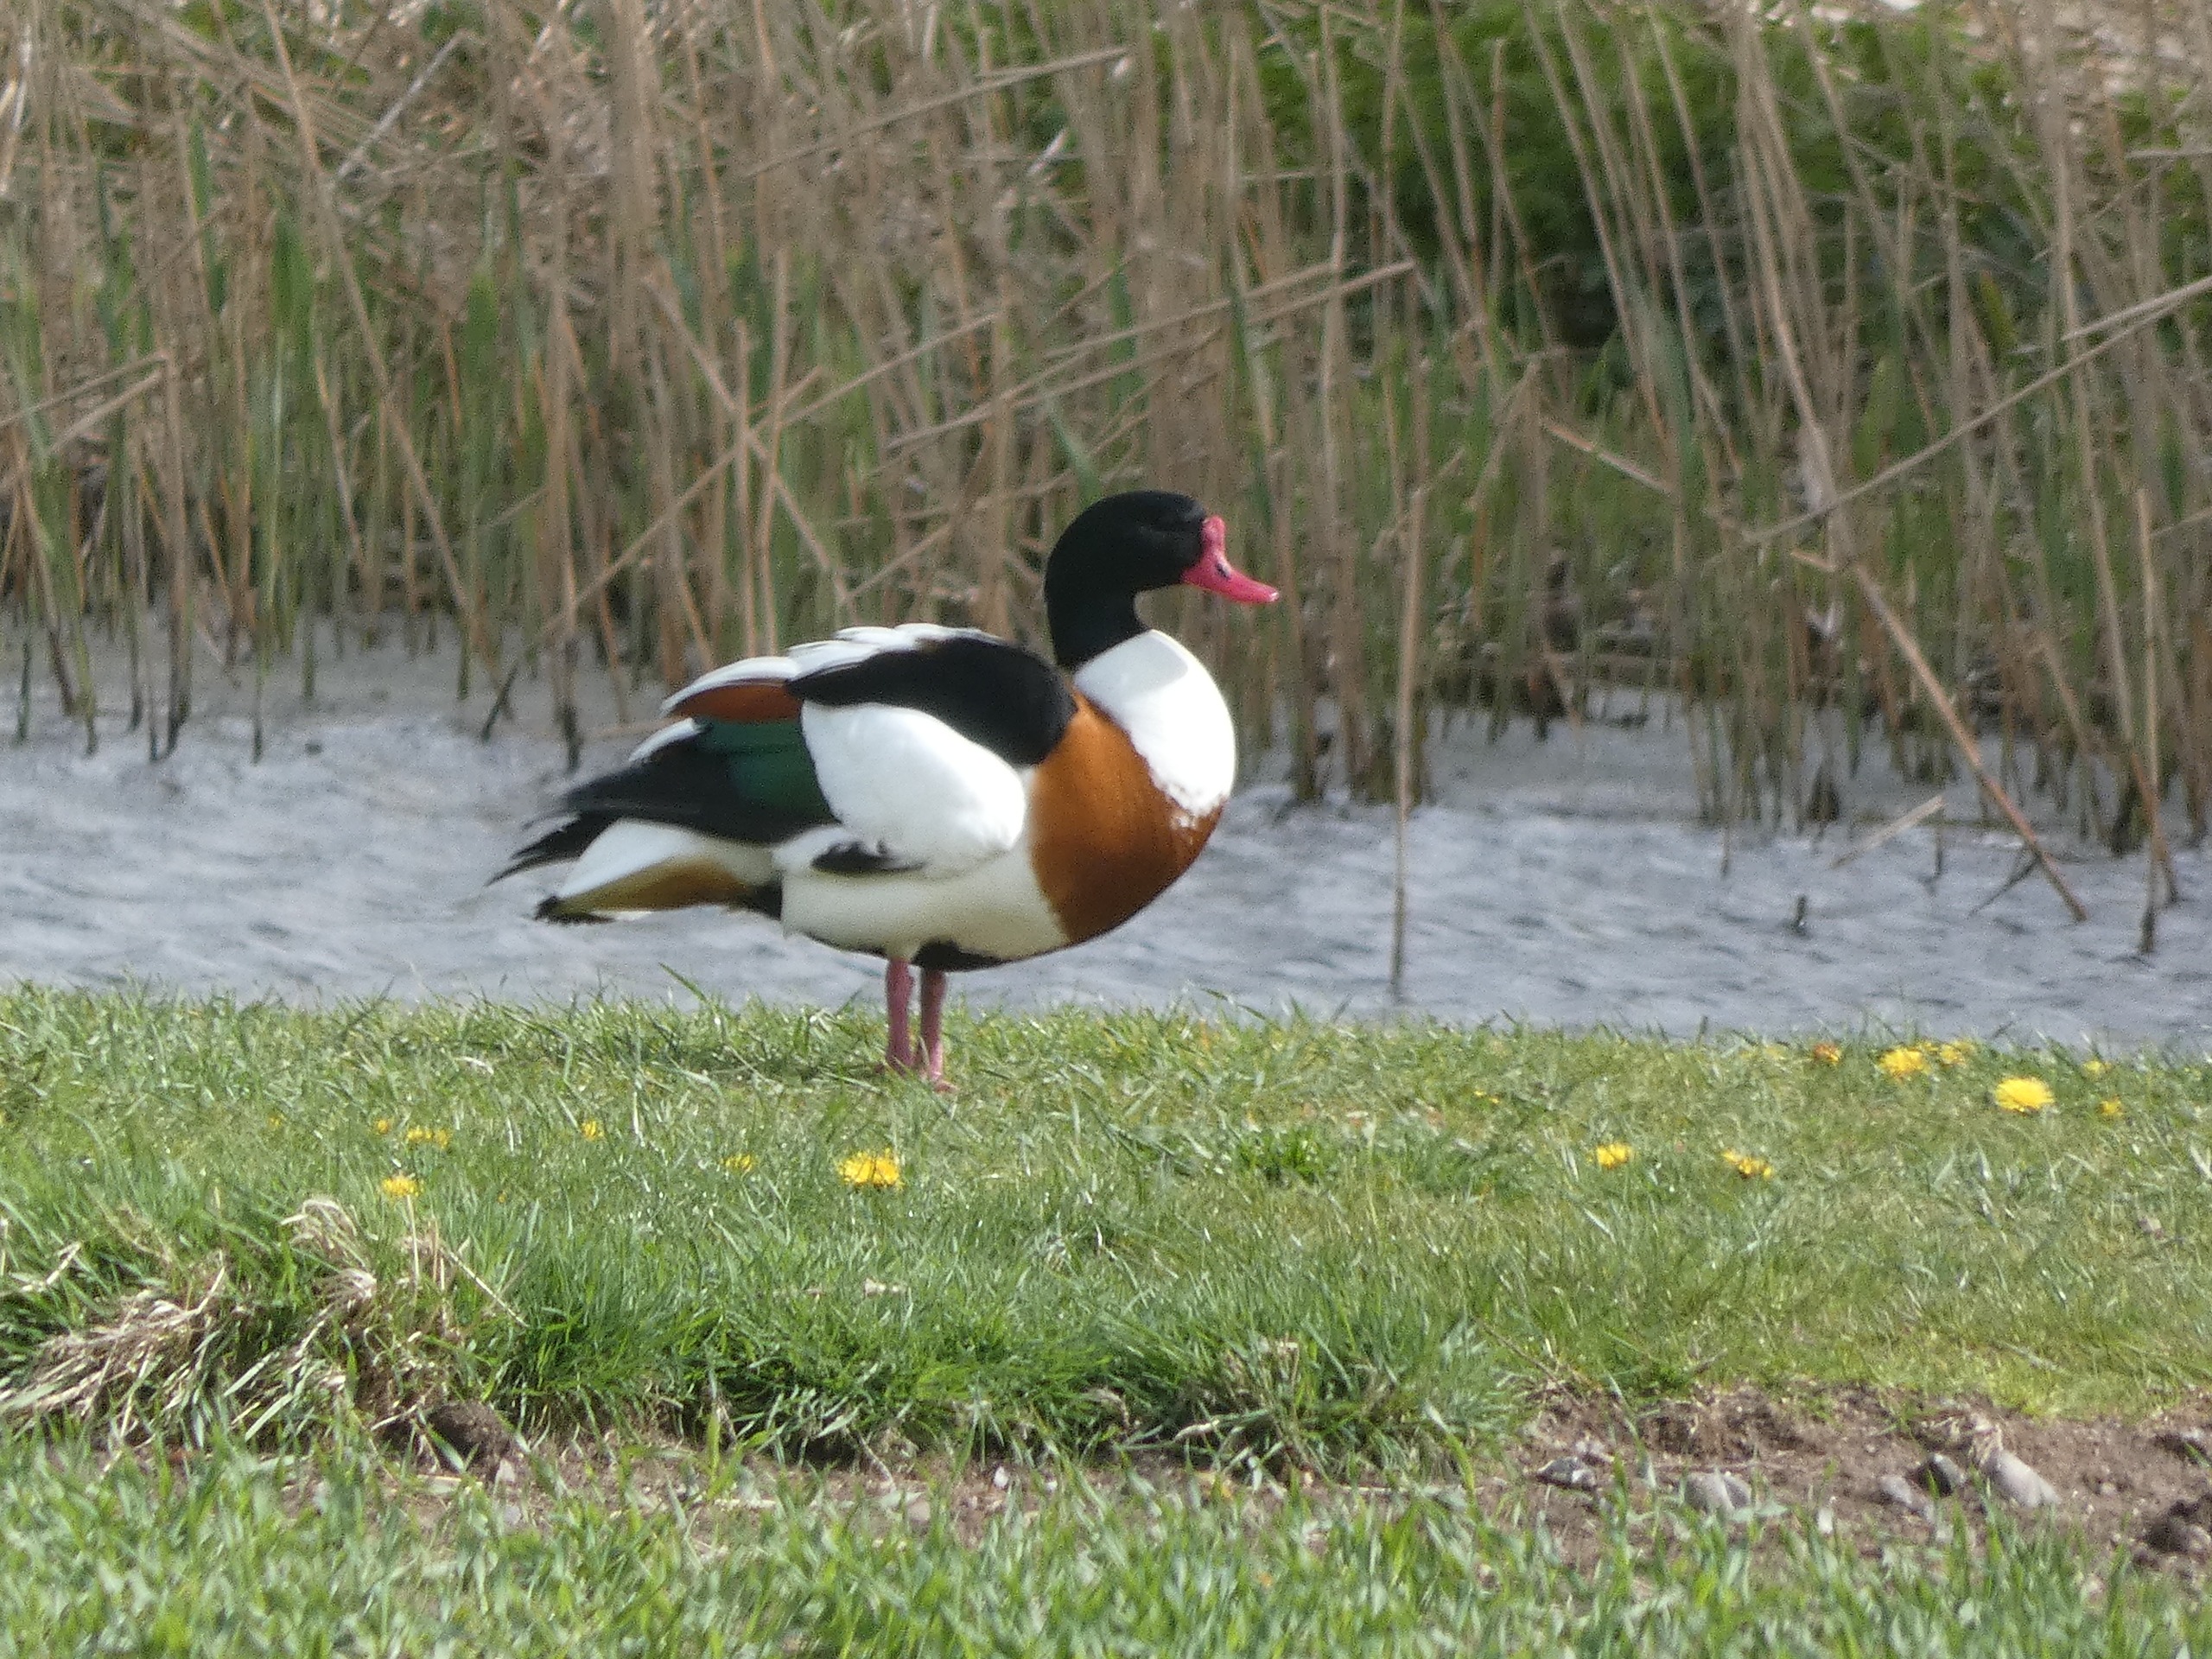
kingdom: Animalia
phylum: Chordata
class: Aves
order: Anseriformes
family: Anatidae
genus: Tadorna
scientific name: Tadorna tadorna
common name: Gravand
